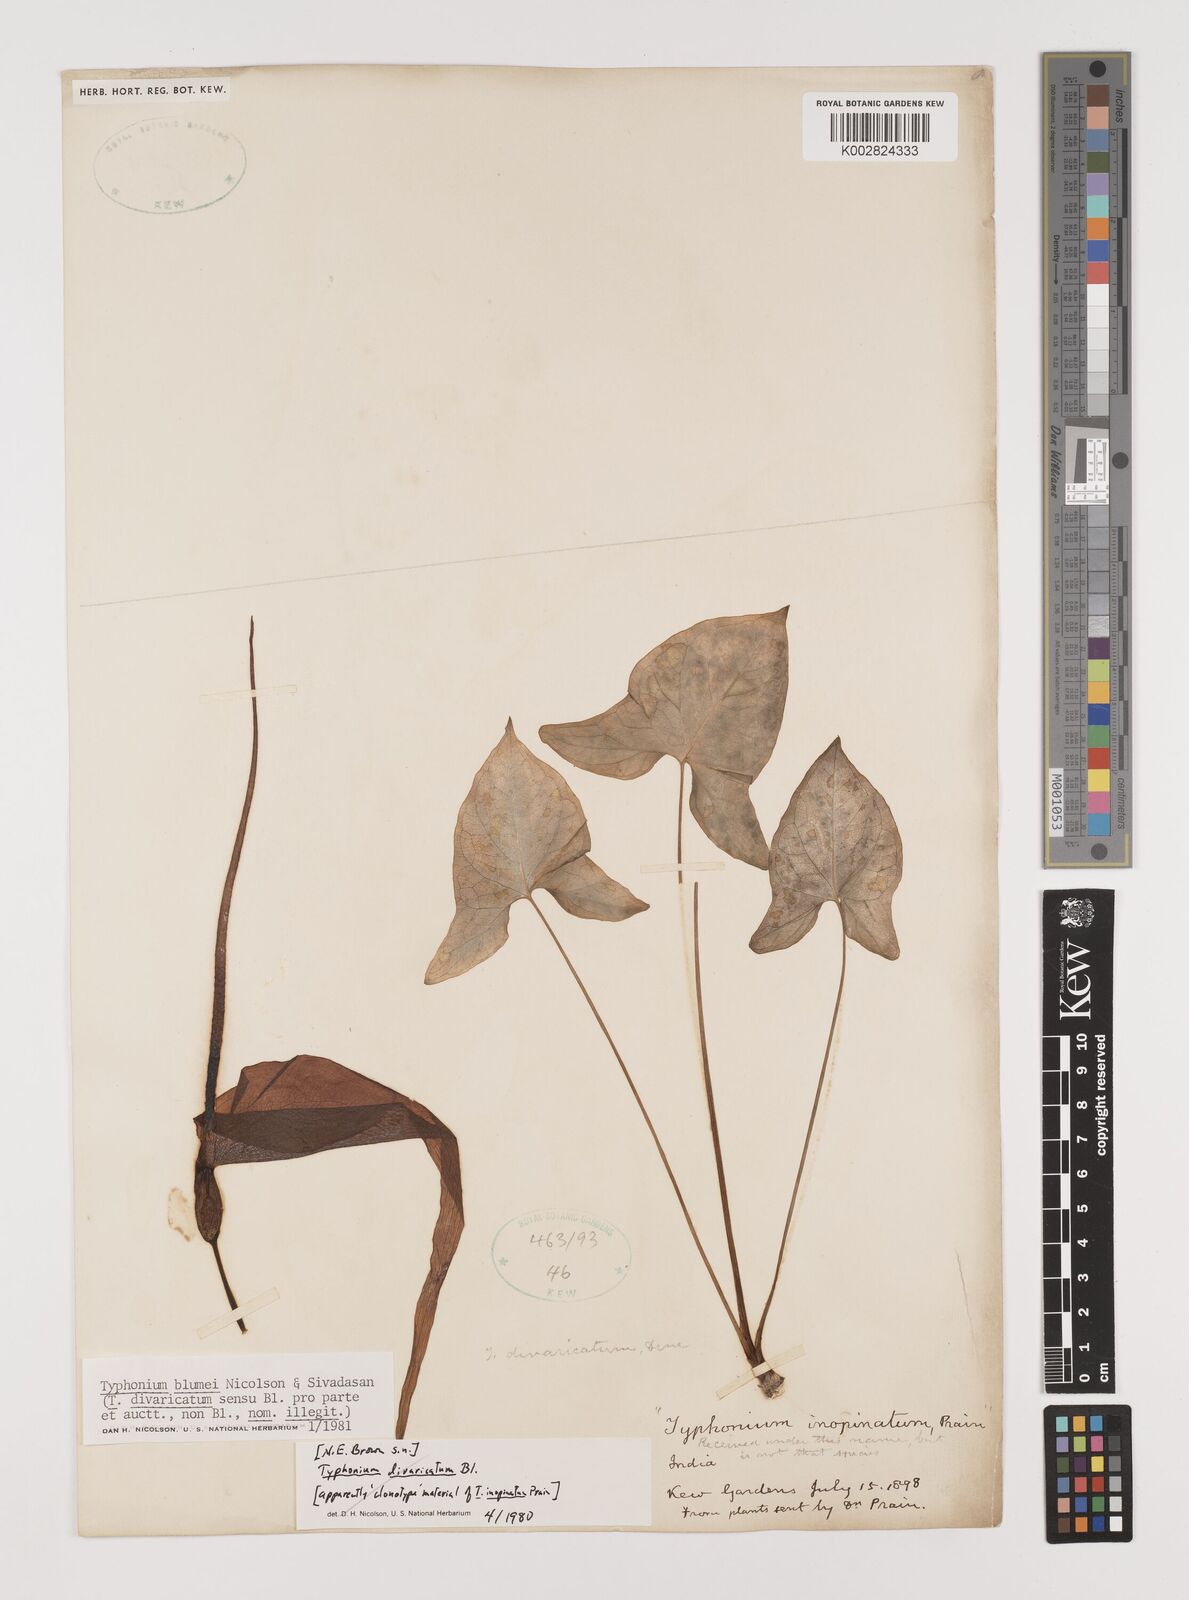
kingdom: Plantae
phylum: Tracheophyta
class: Liliopsida
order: Alismatales
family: Araceae
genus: Typhonium
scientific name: Typhonium blumei
